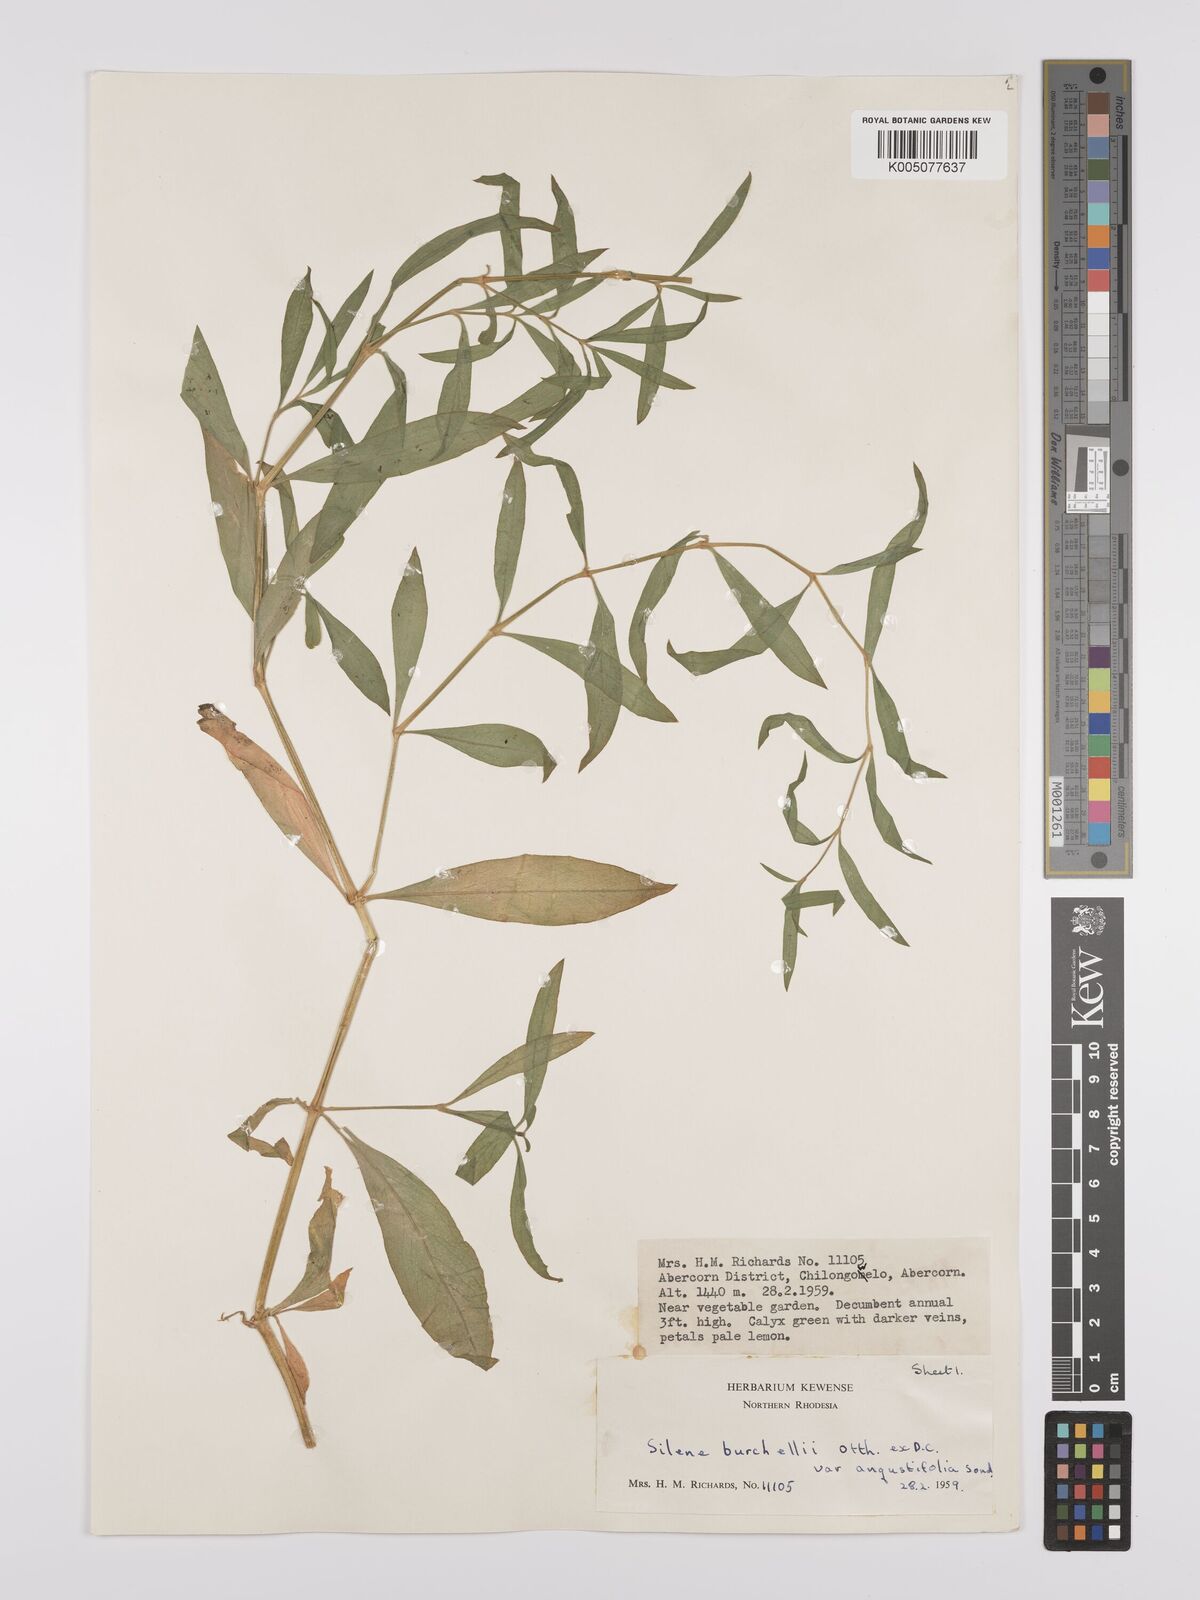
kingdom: Plantae
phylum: Tracheophyta
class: Magnoliopsida
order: Caryophyllales
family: Caryophyllaceae
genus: Silene
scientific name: Silene burchellii
